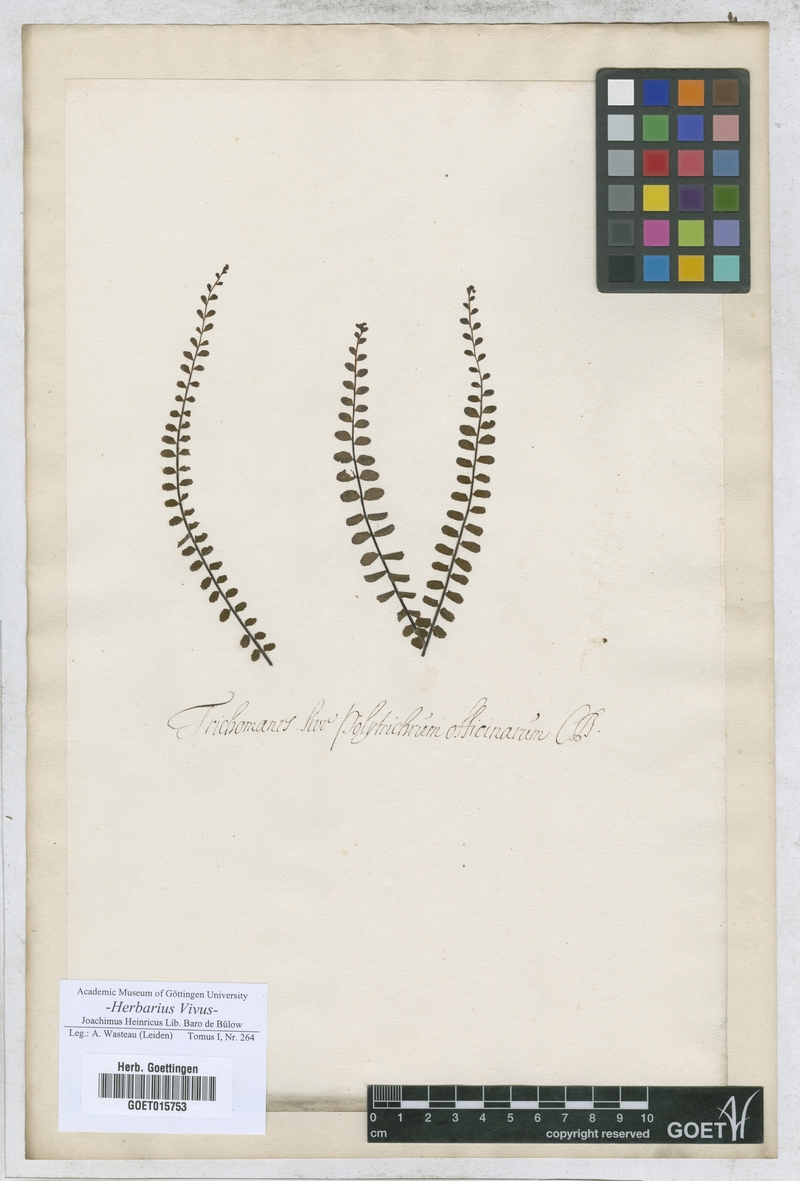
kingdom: Plantae
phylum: Tracheophyta
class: Polypodiopsida
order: Hymenophyllales
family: Hymenophyllaceae
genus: Trichomanes
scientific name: Trichomanes
